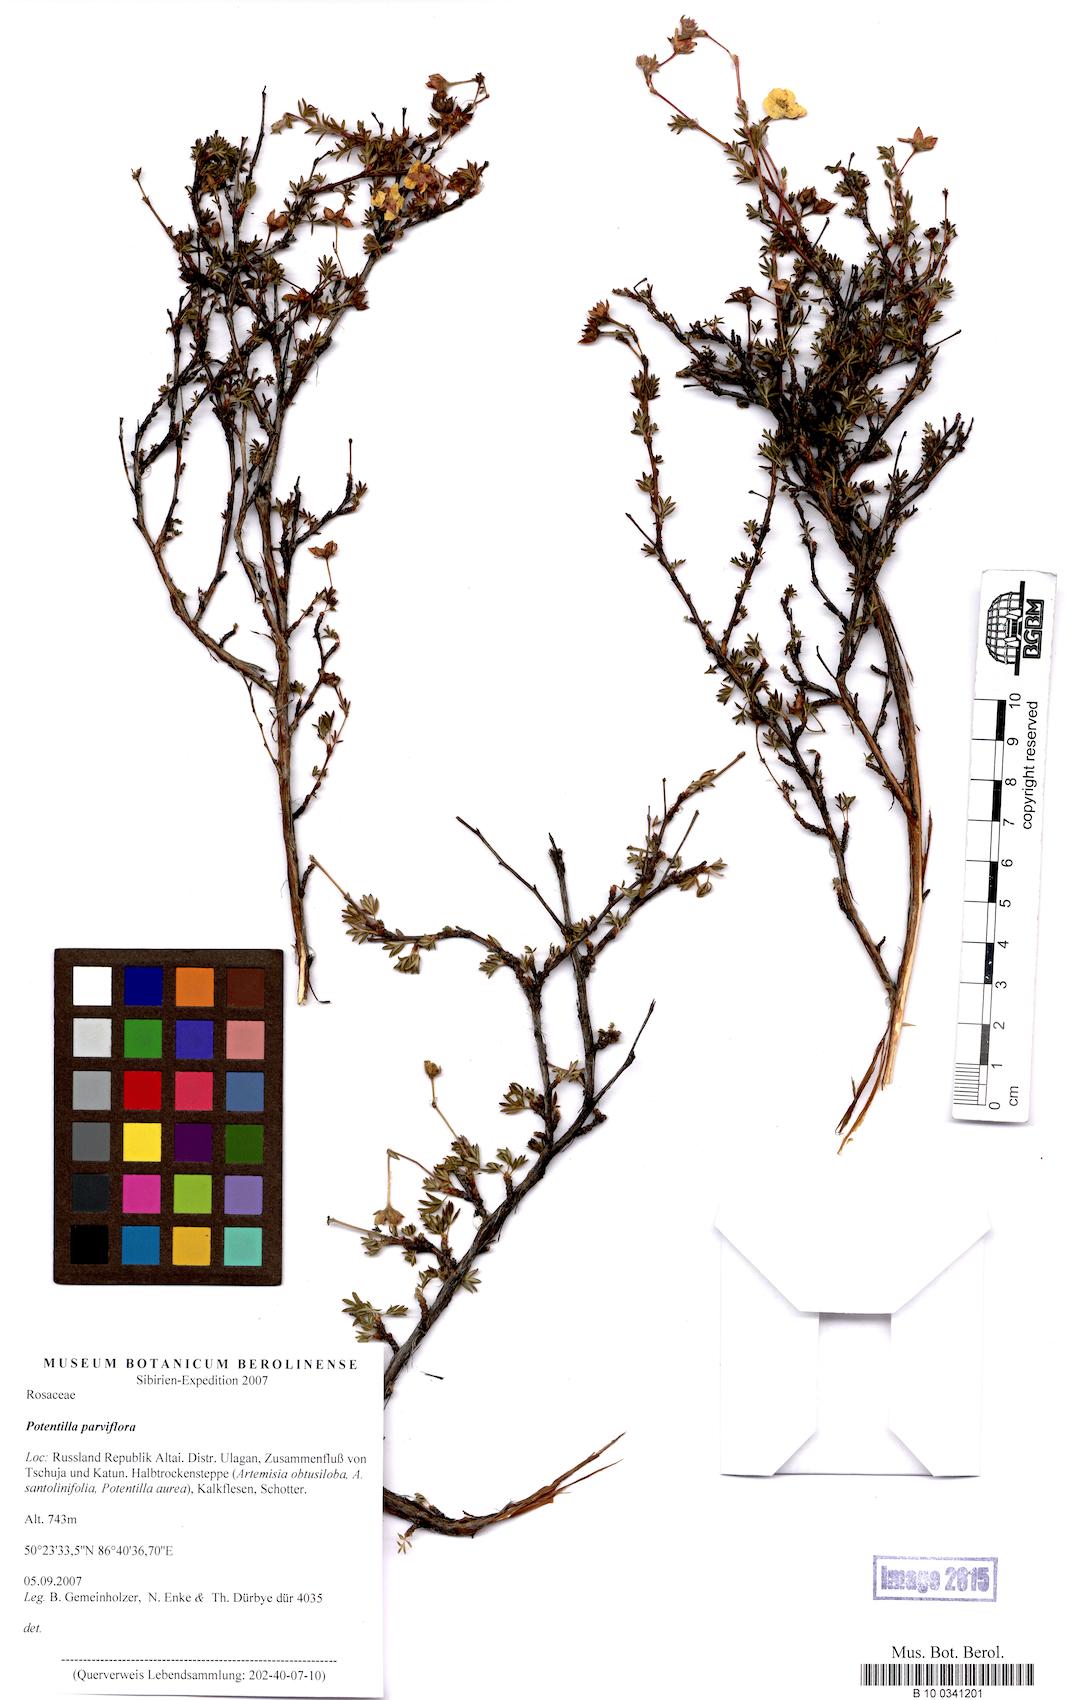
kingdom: Plantae
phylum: Tracheophyta
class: Magnoliopsida
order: Rosales
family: Rosaceae
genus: Potentilla
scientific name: Potentilla
